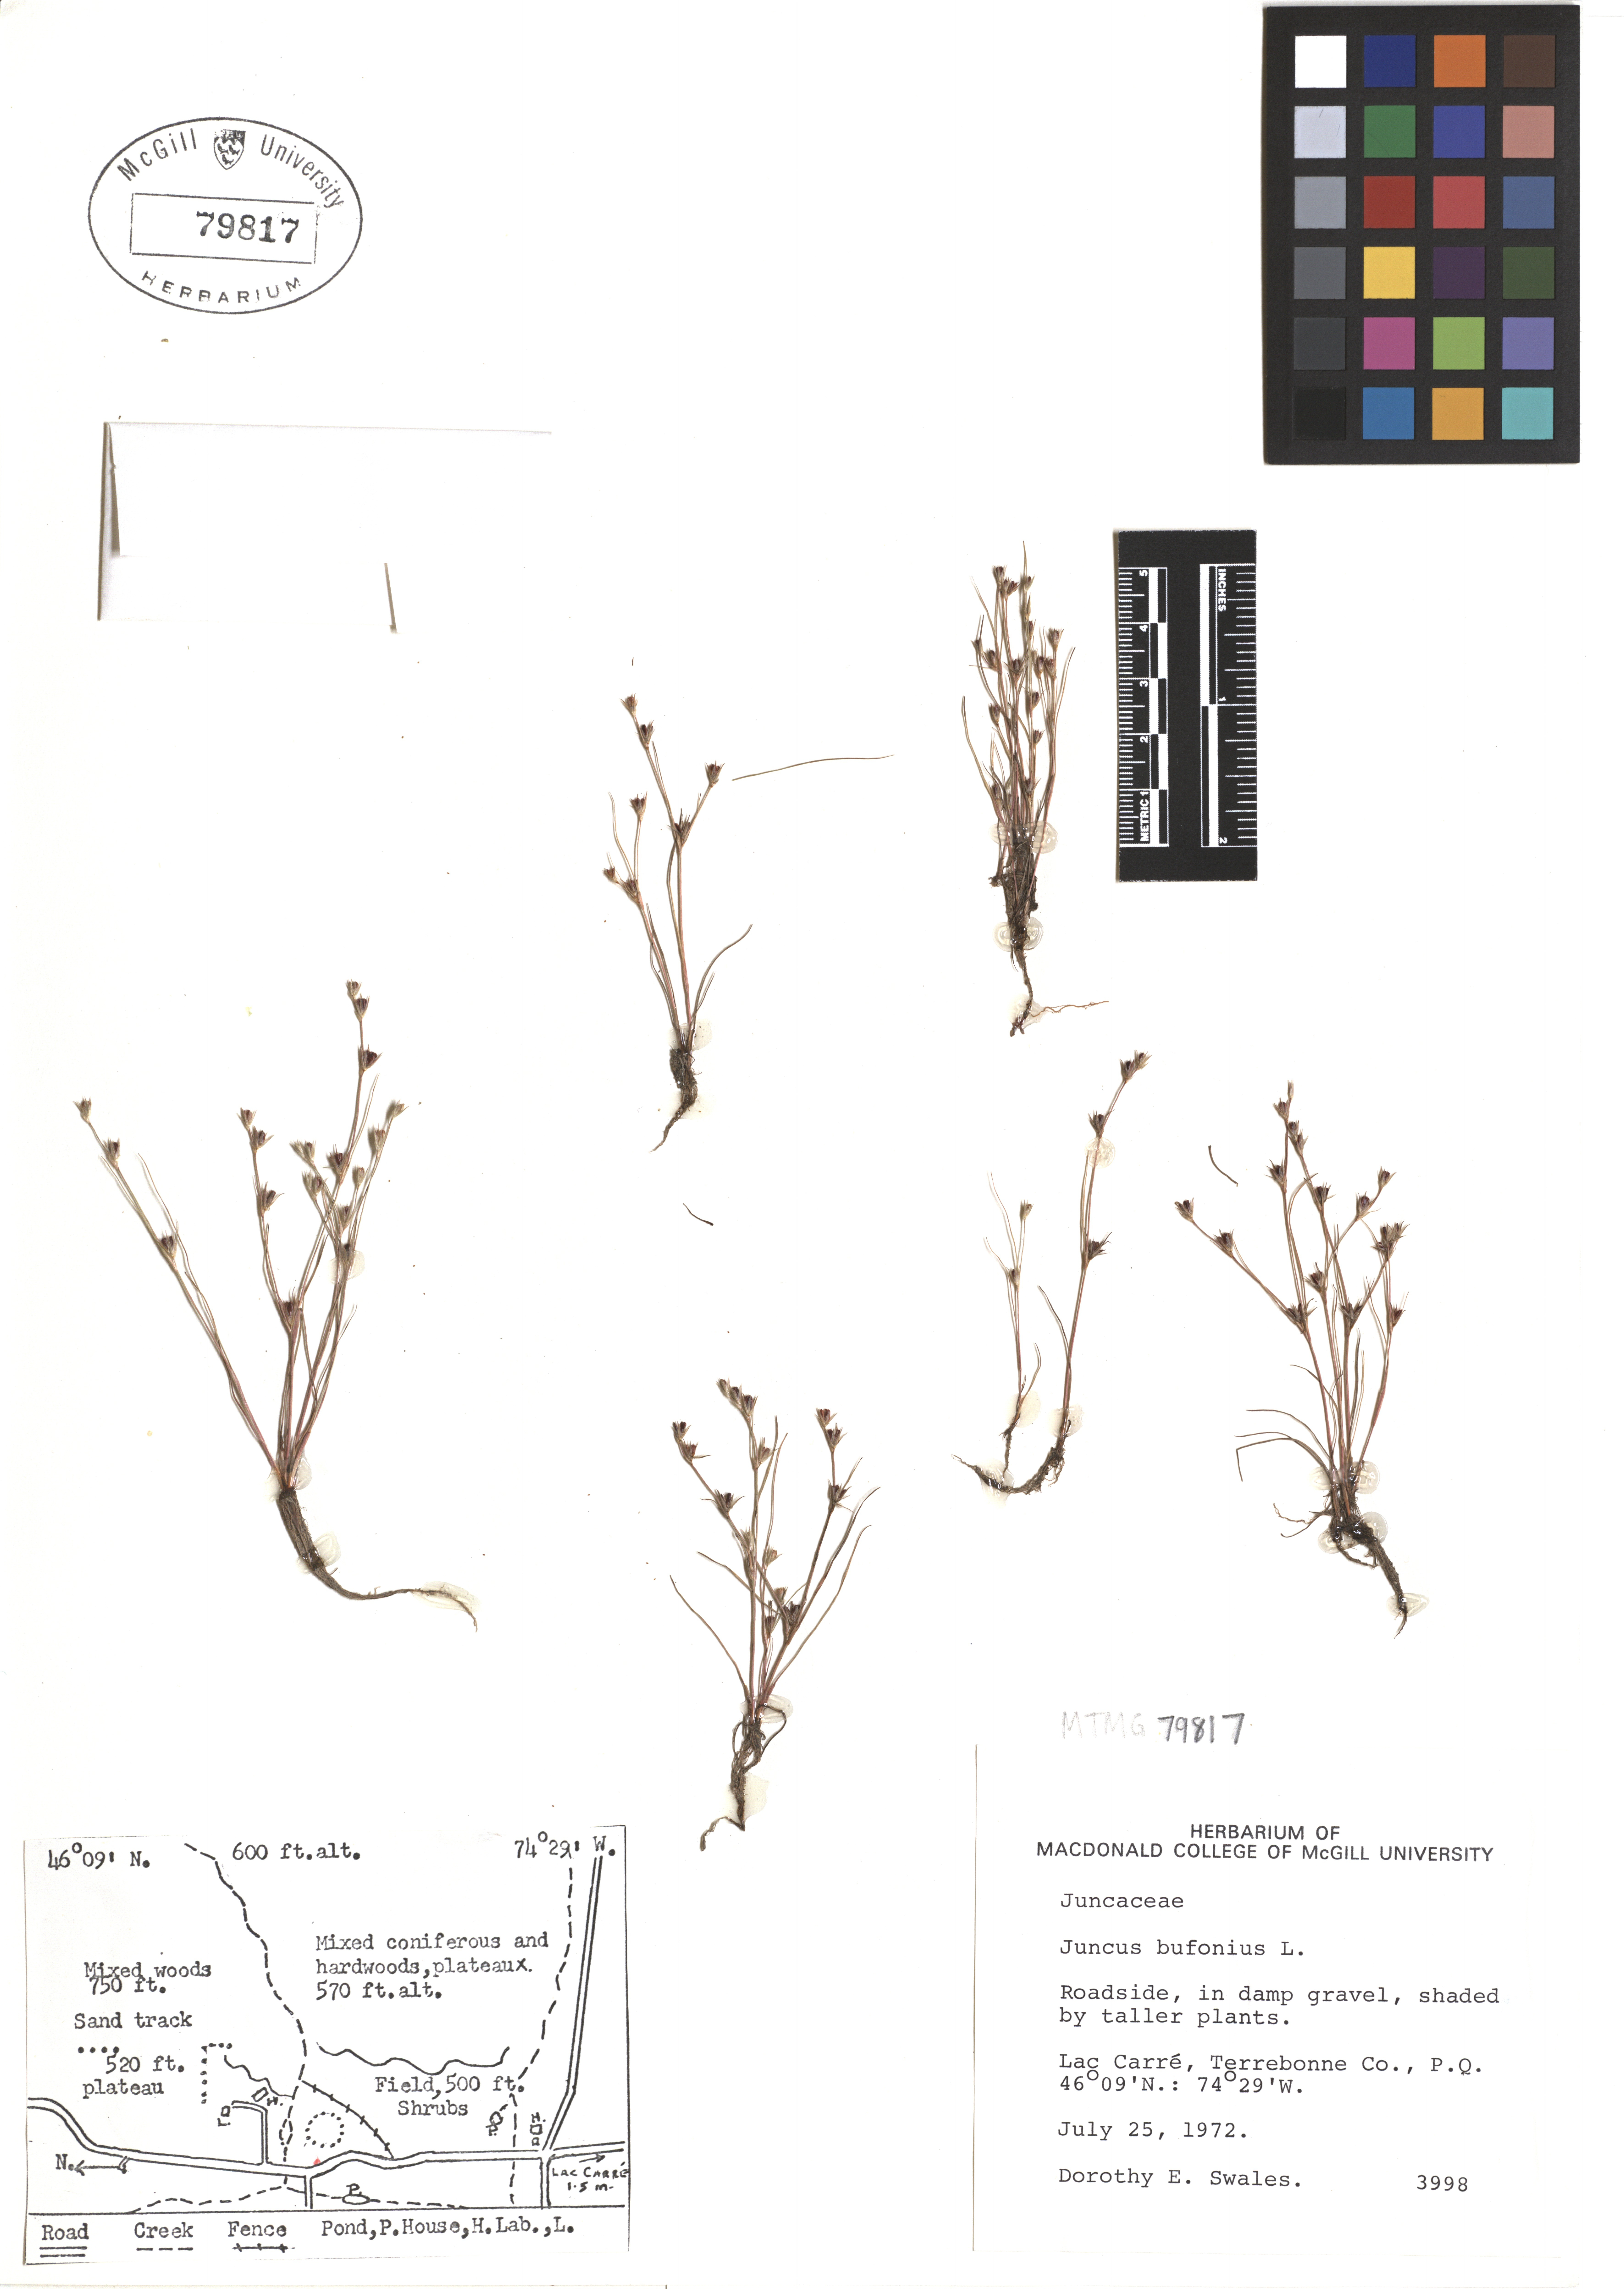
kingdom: Plantae
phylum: Tracheophyta
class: Liliopsida
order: Poales
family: Juncaceae
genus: Juncus
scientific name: Juncus bufonius
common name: Toad rush
